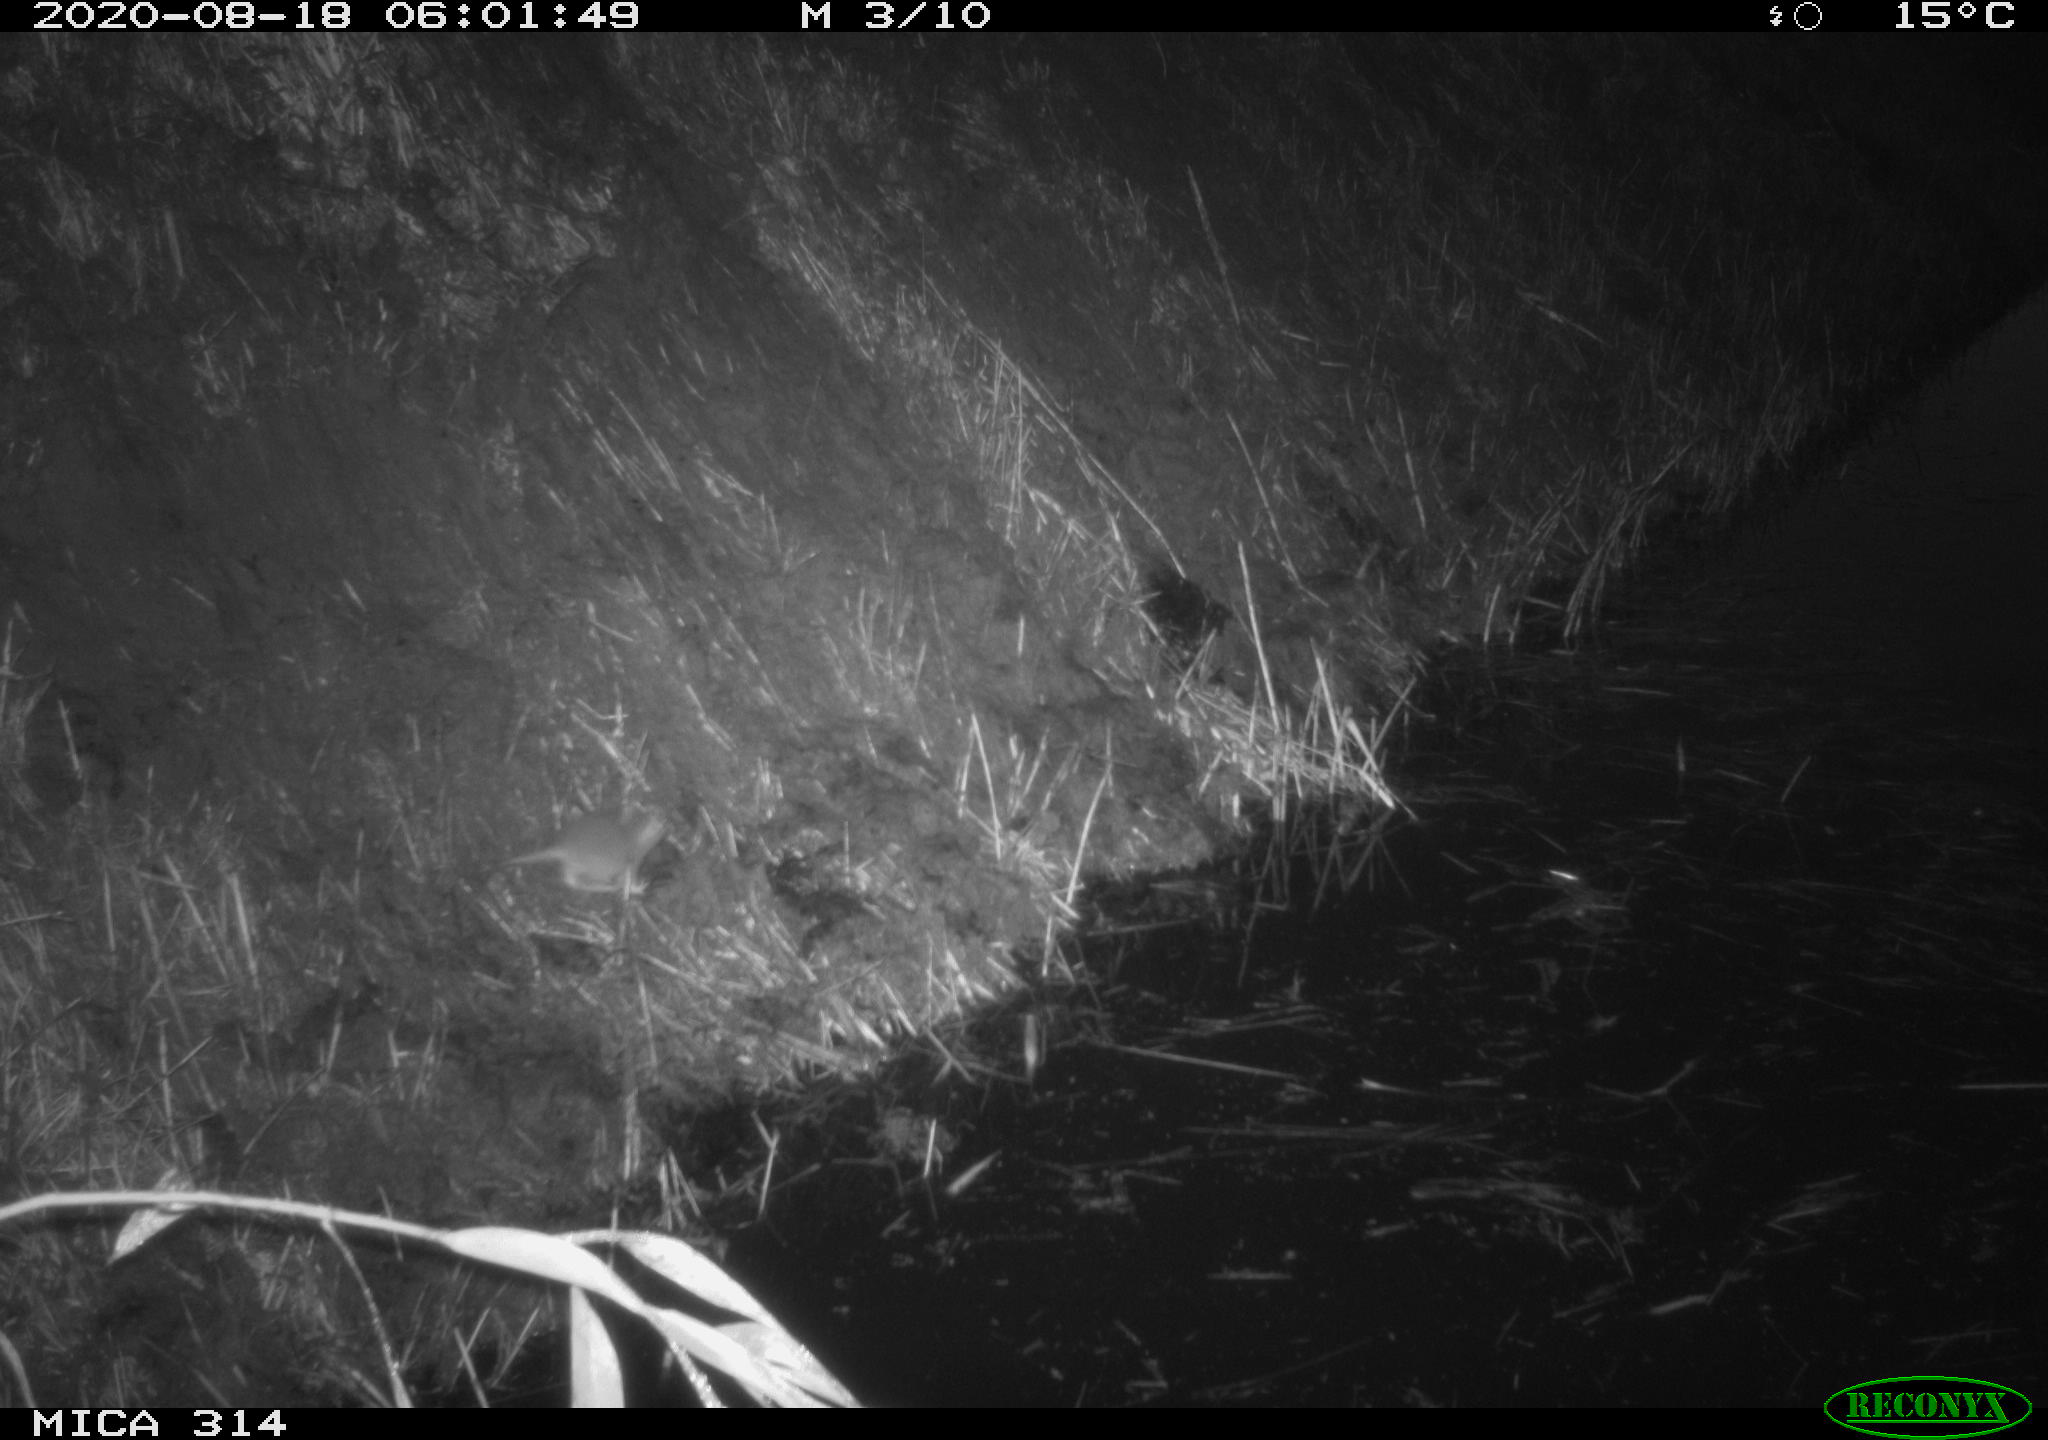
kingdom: Animalia
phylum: Chordata
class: Mammalia
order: Rodentia
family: Muridae
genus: Rattus
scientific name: Rattus norvegicus
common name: Brown rat
